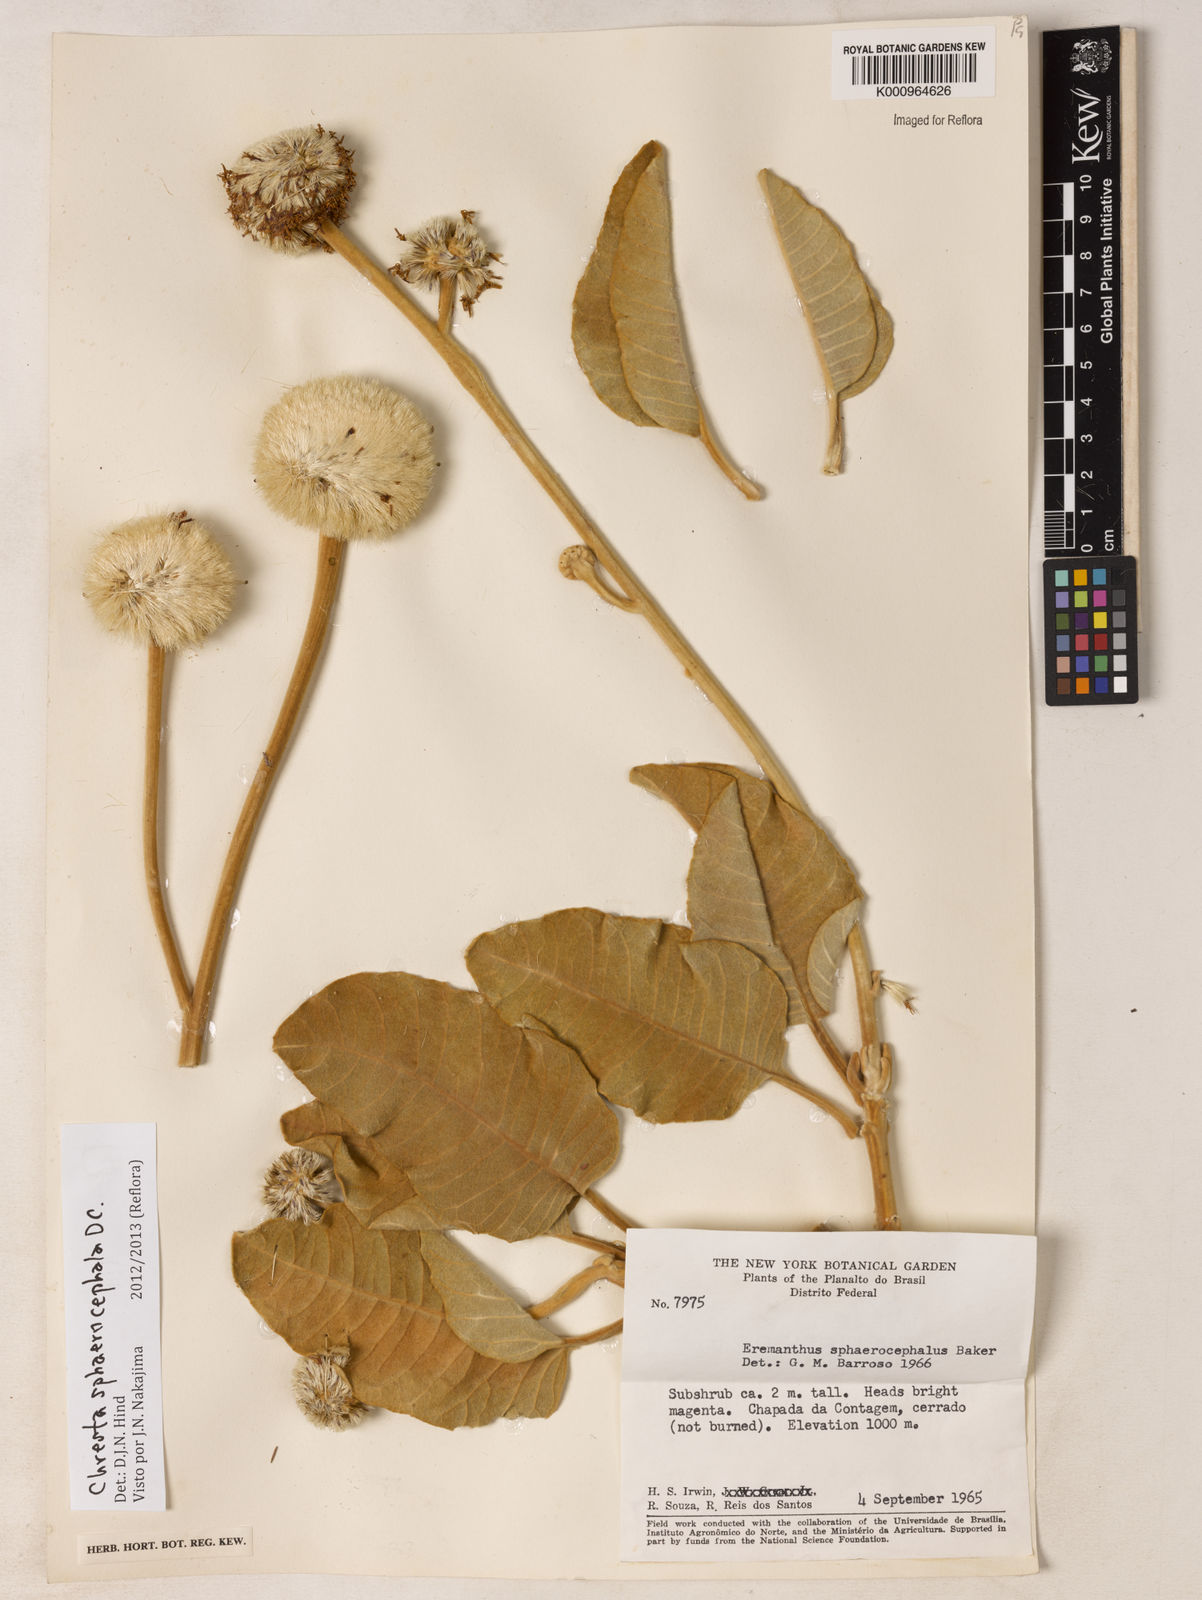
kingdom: Plantae
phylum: Tracheophyta
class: Magnoliopsida
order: Asterales
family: Asteraceae
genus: Chresta
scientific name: Chresta sphaerocephala
